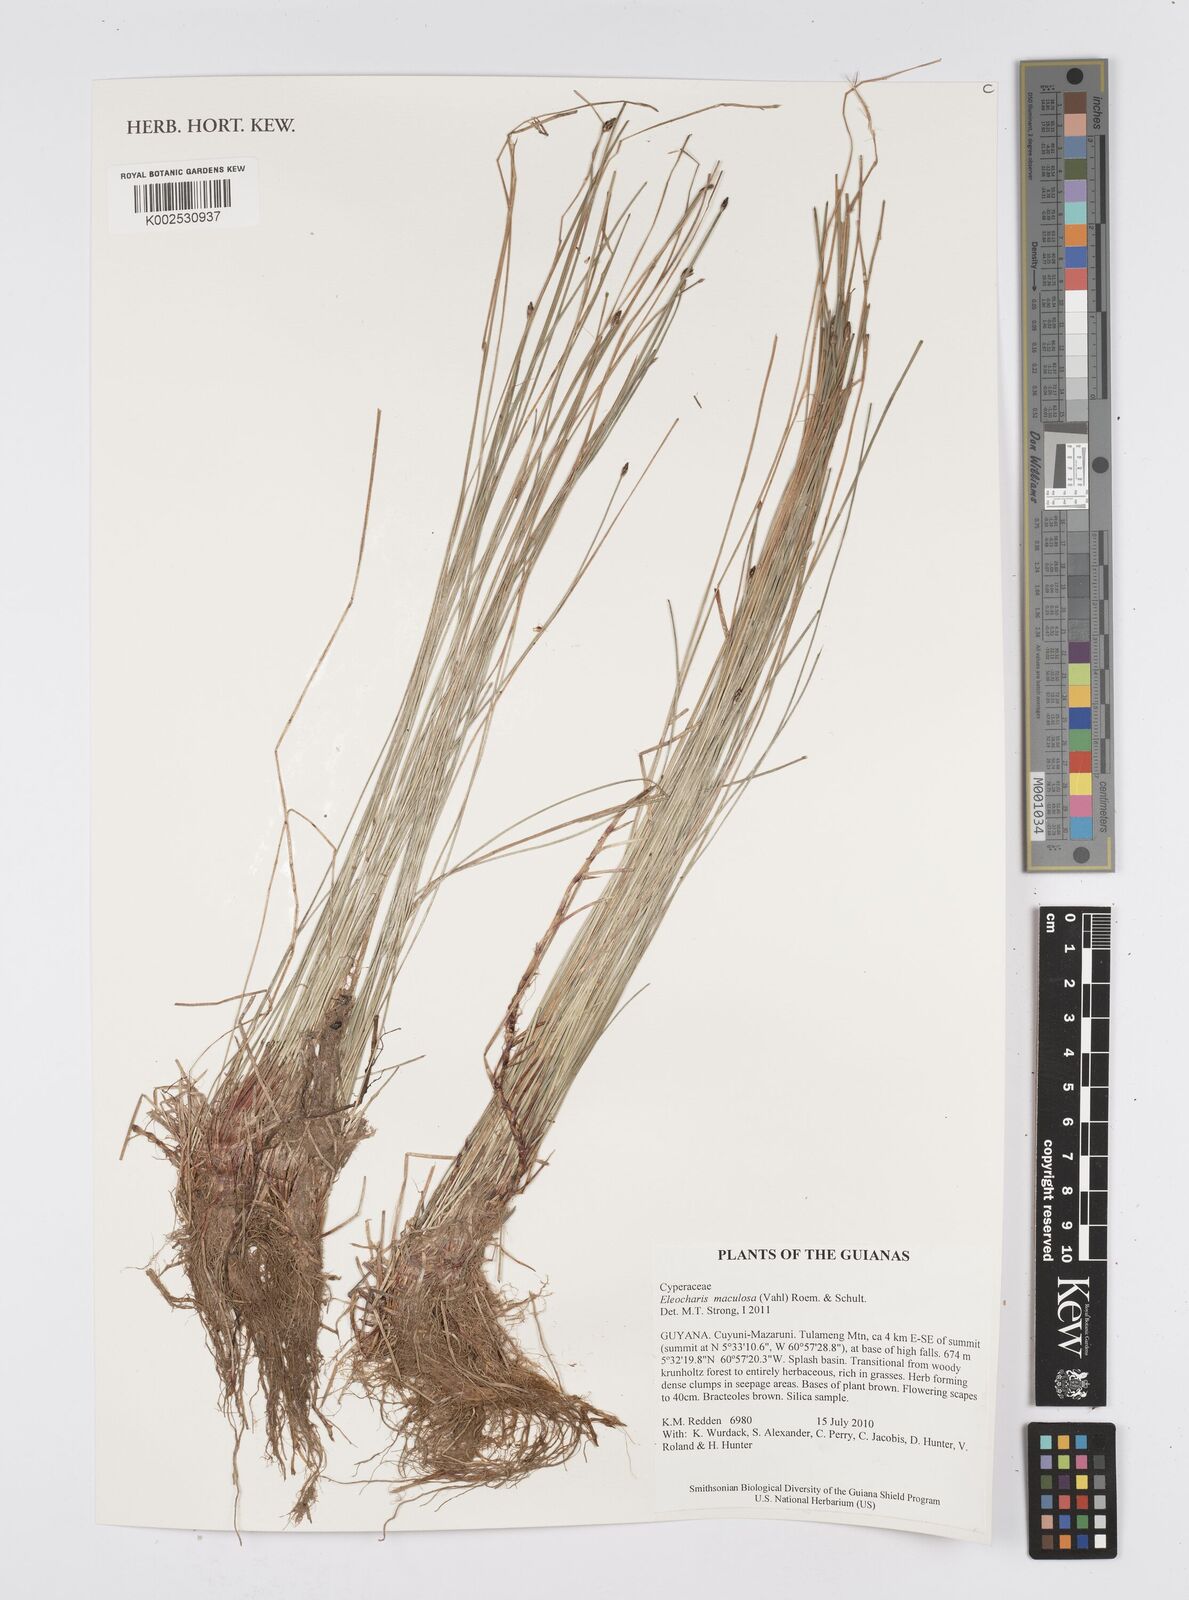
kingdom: Plantae
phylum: Tracheophyta
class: Liliopsida
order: Poales
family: Cyperaceae
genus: Eleocharis
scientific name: Eleocharis maculosa
